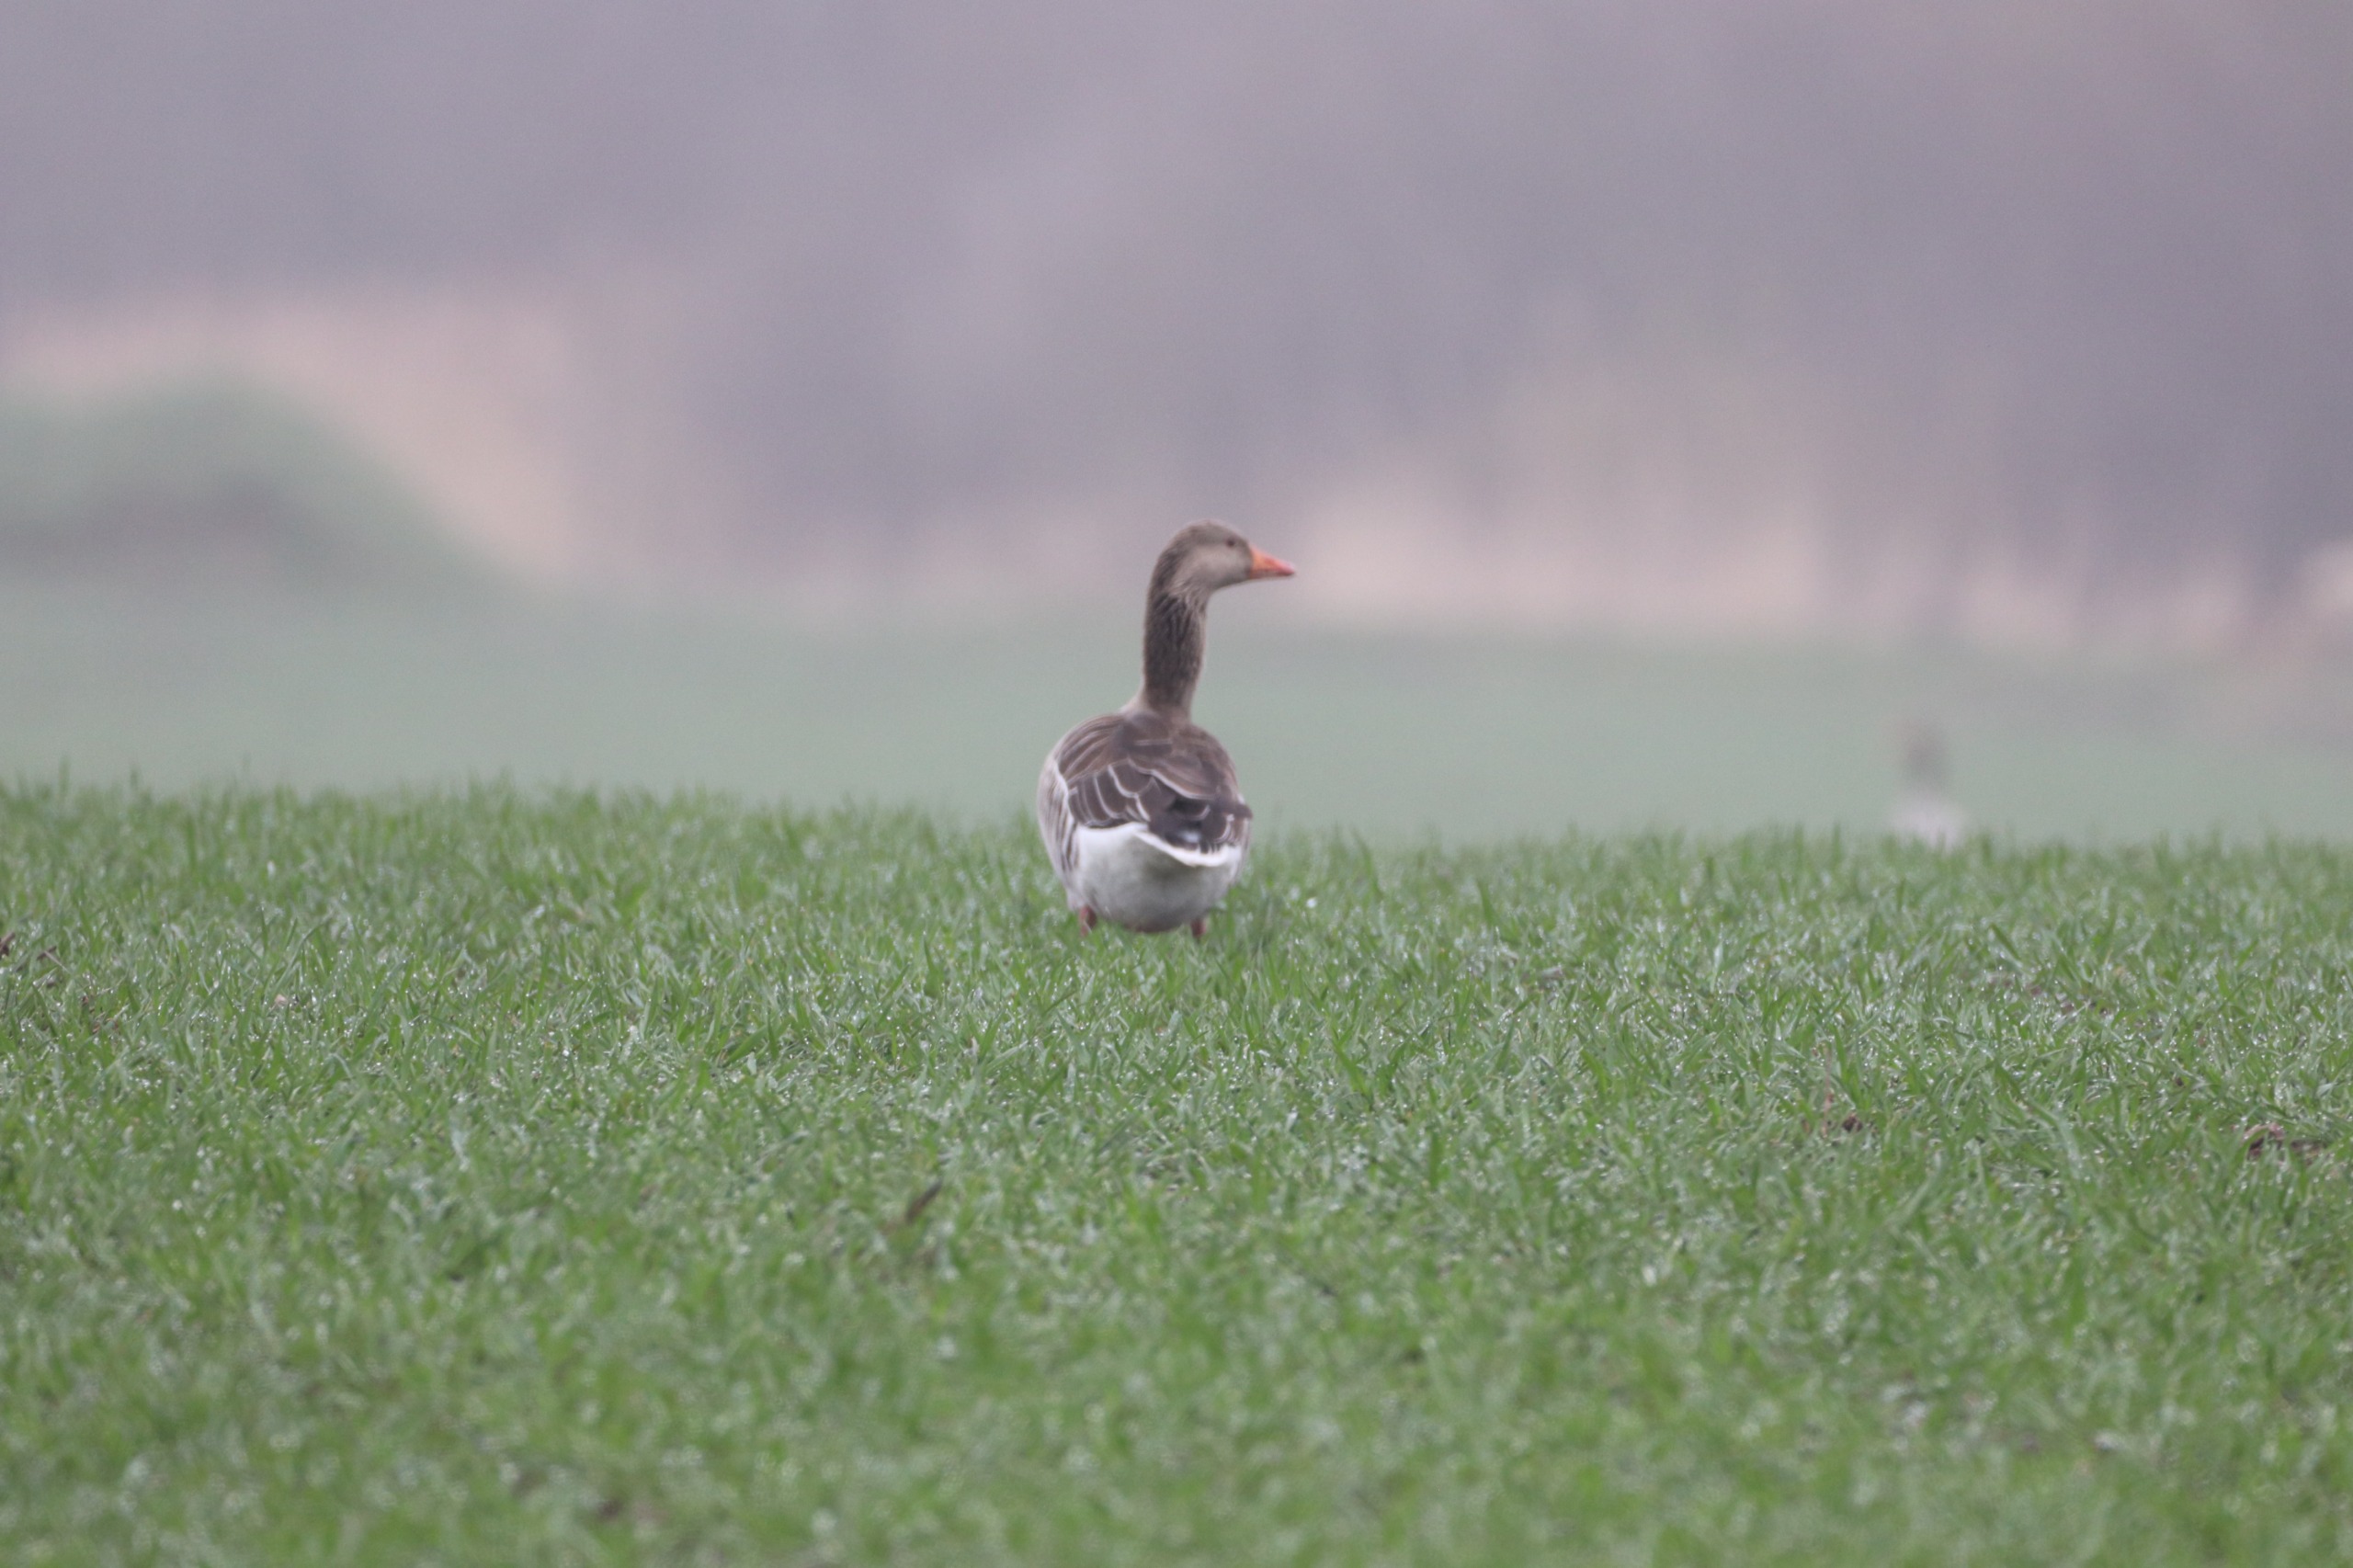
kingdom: Animalia
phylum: Chordata
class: Aves
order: Anseriformes
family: Anatidae
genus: Anser
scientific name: Anser anser
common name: Grågås
